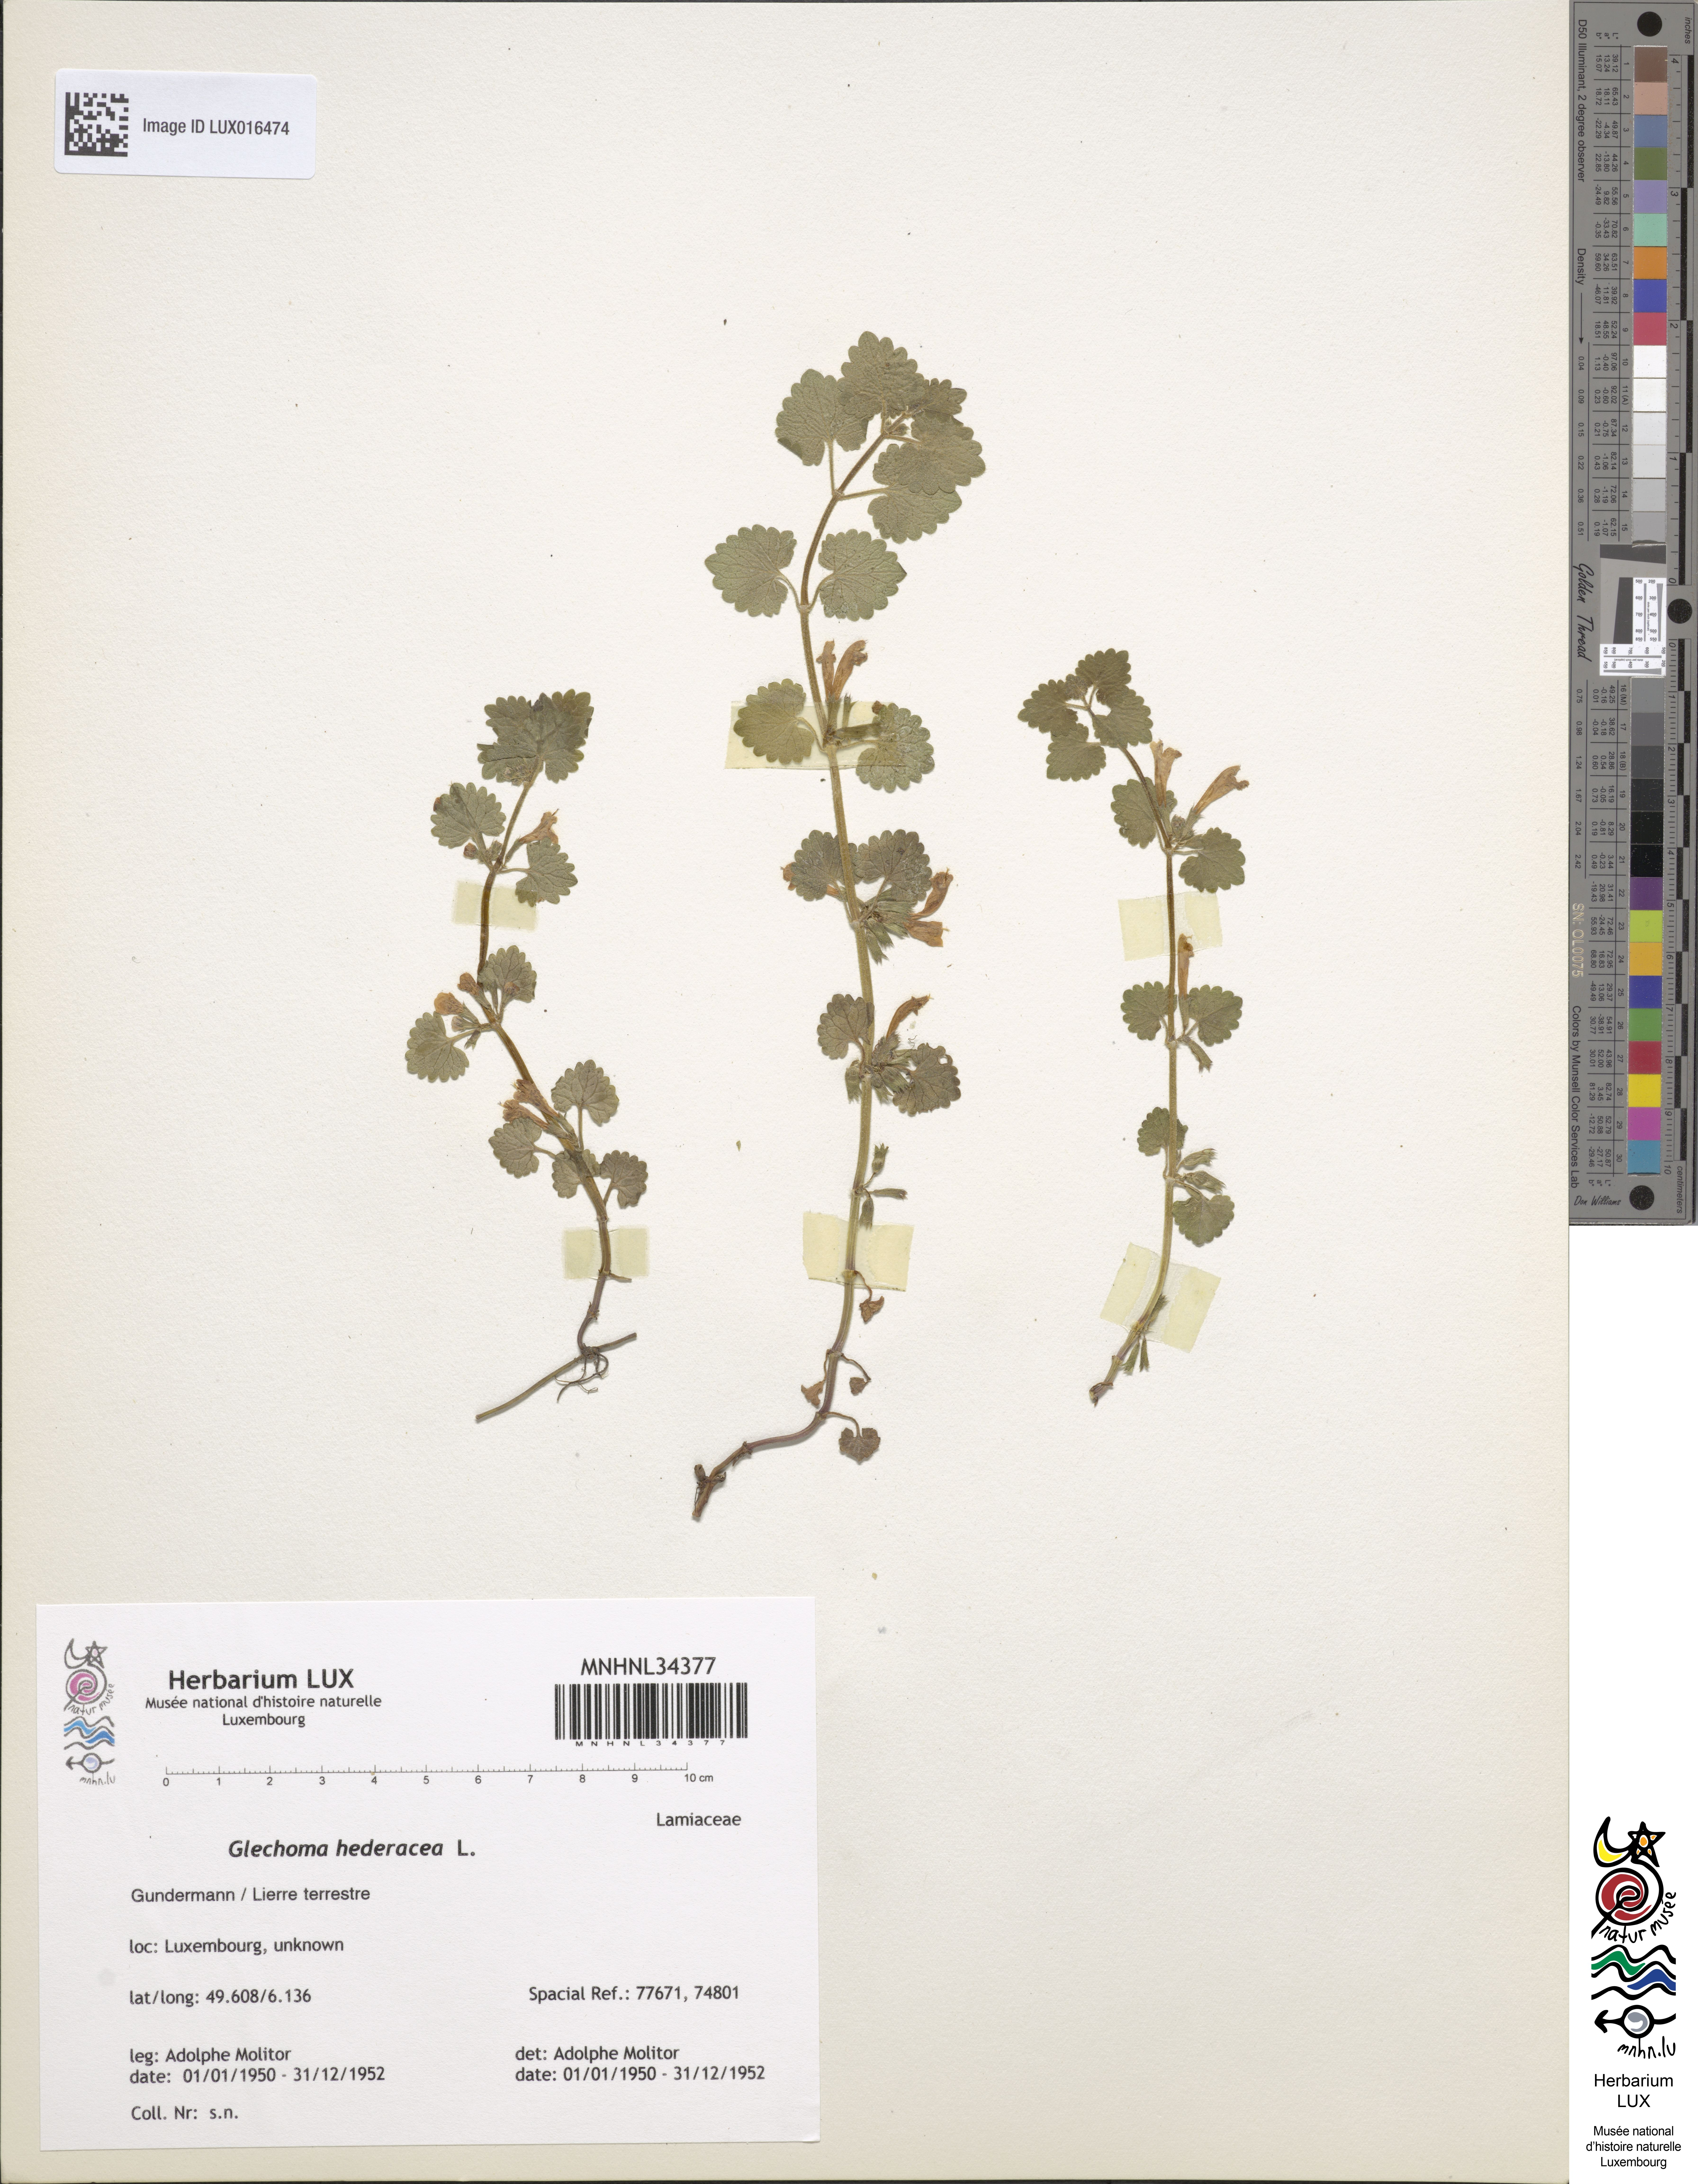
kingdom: Plantae
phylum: Tracheophyta
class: Magnoliopsida
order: Lamiales
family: Lamiaceae
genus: Glechoma
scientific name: Glechoma hederacea
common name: Ground ivy
